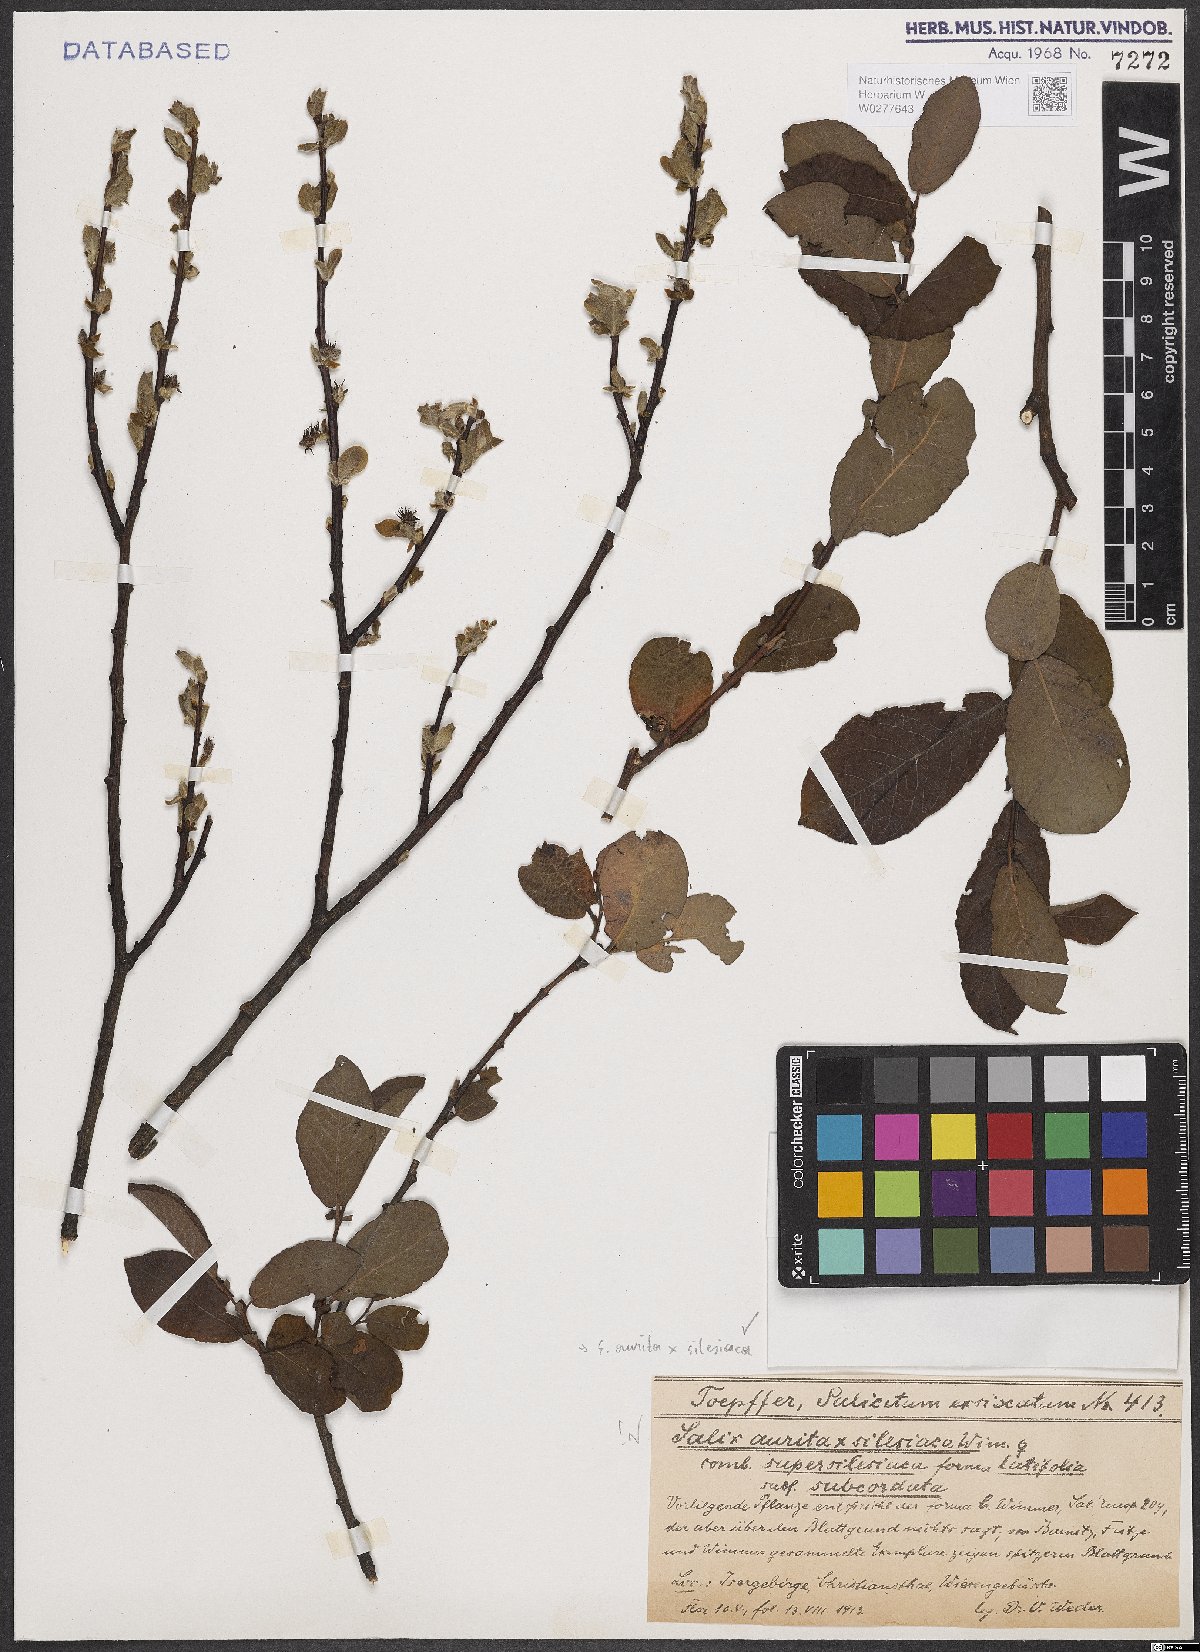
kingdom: Plantae
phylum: Tracheophyta
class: Magnoliopsida
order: Malpighiales
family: Salicaceae
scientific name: Salicaceae
